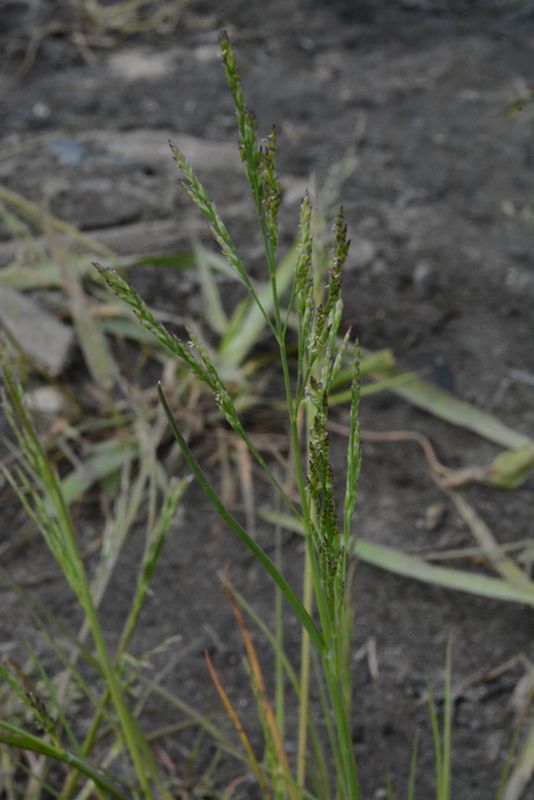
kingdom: Plantae
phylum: Tracheophyta
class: Liliopsida
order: Poales
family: Poaceae
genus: Puccinellia
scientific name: Puccinellia distans
